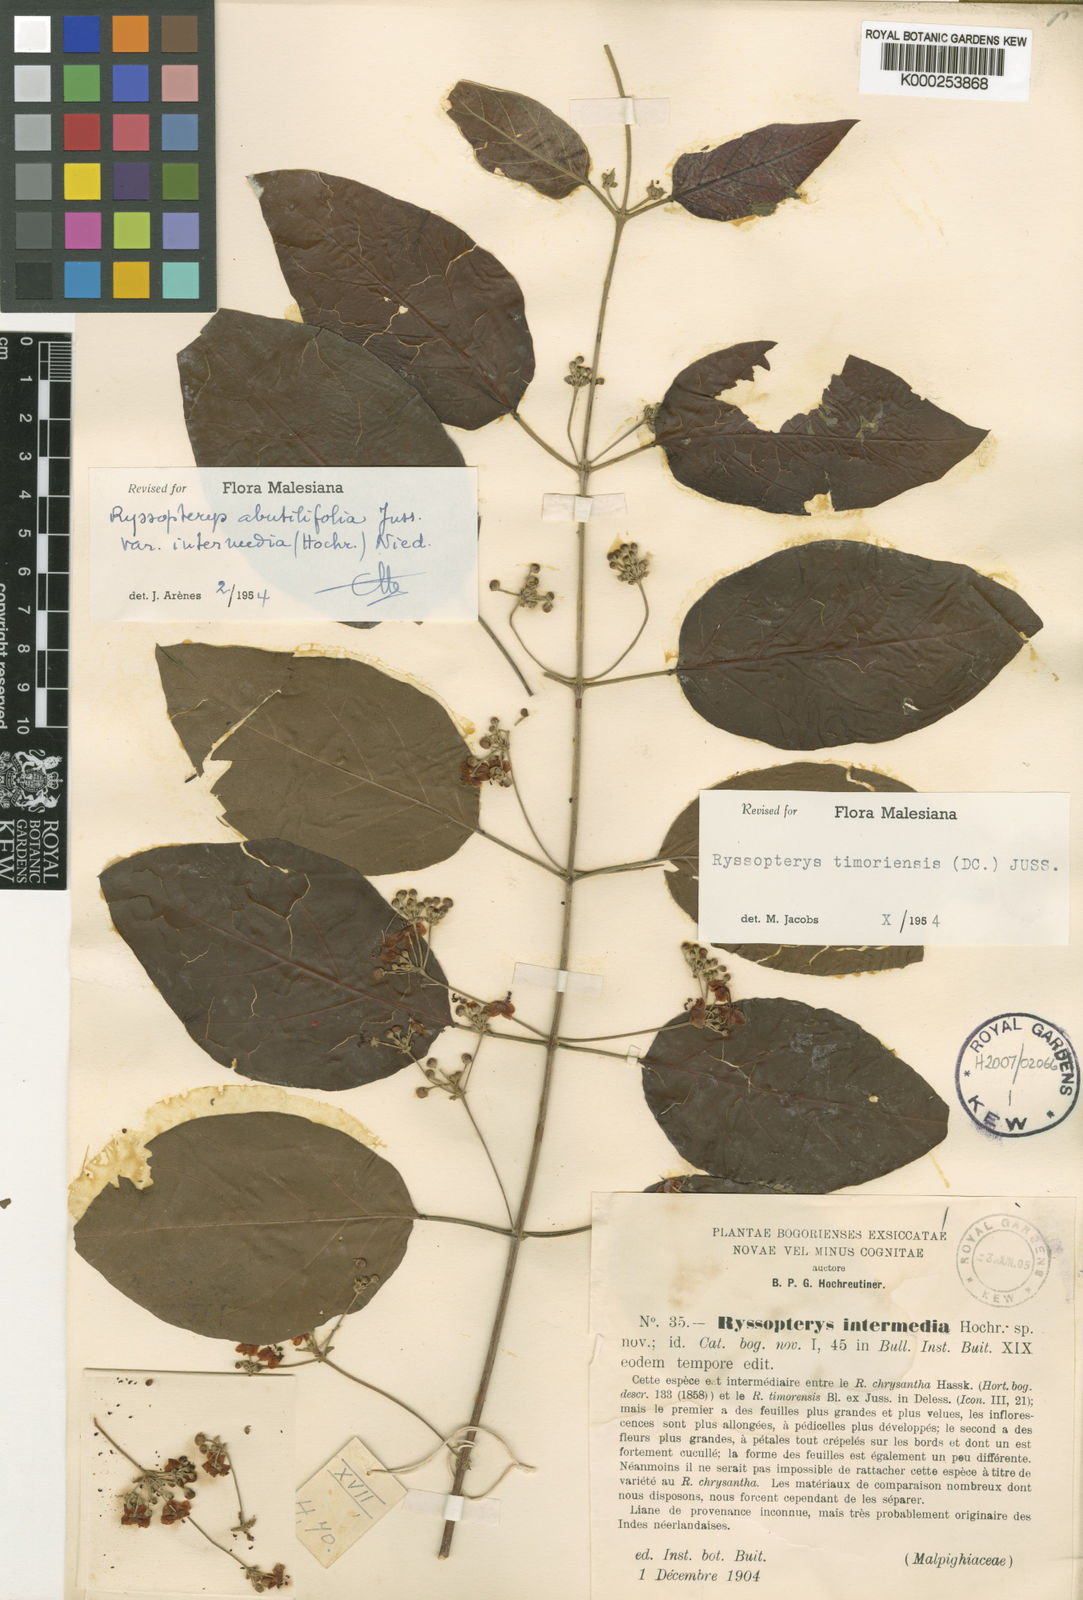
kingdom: Plantae
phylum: Tracheophyta
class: Magnoliopsida
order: Malpighiales
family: Malpighiaceae
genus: Stigmaphyllon
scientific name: Stigmaphyllon intermedium
